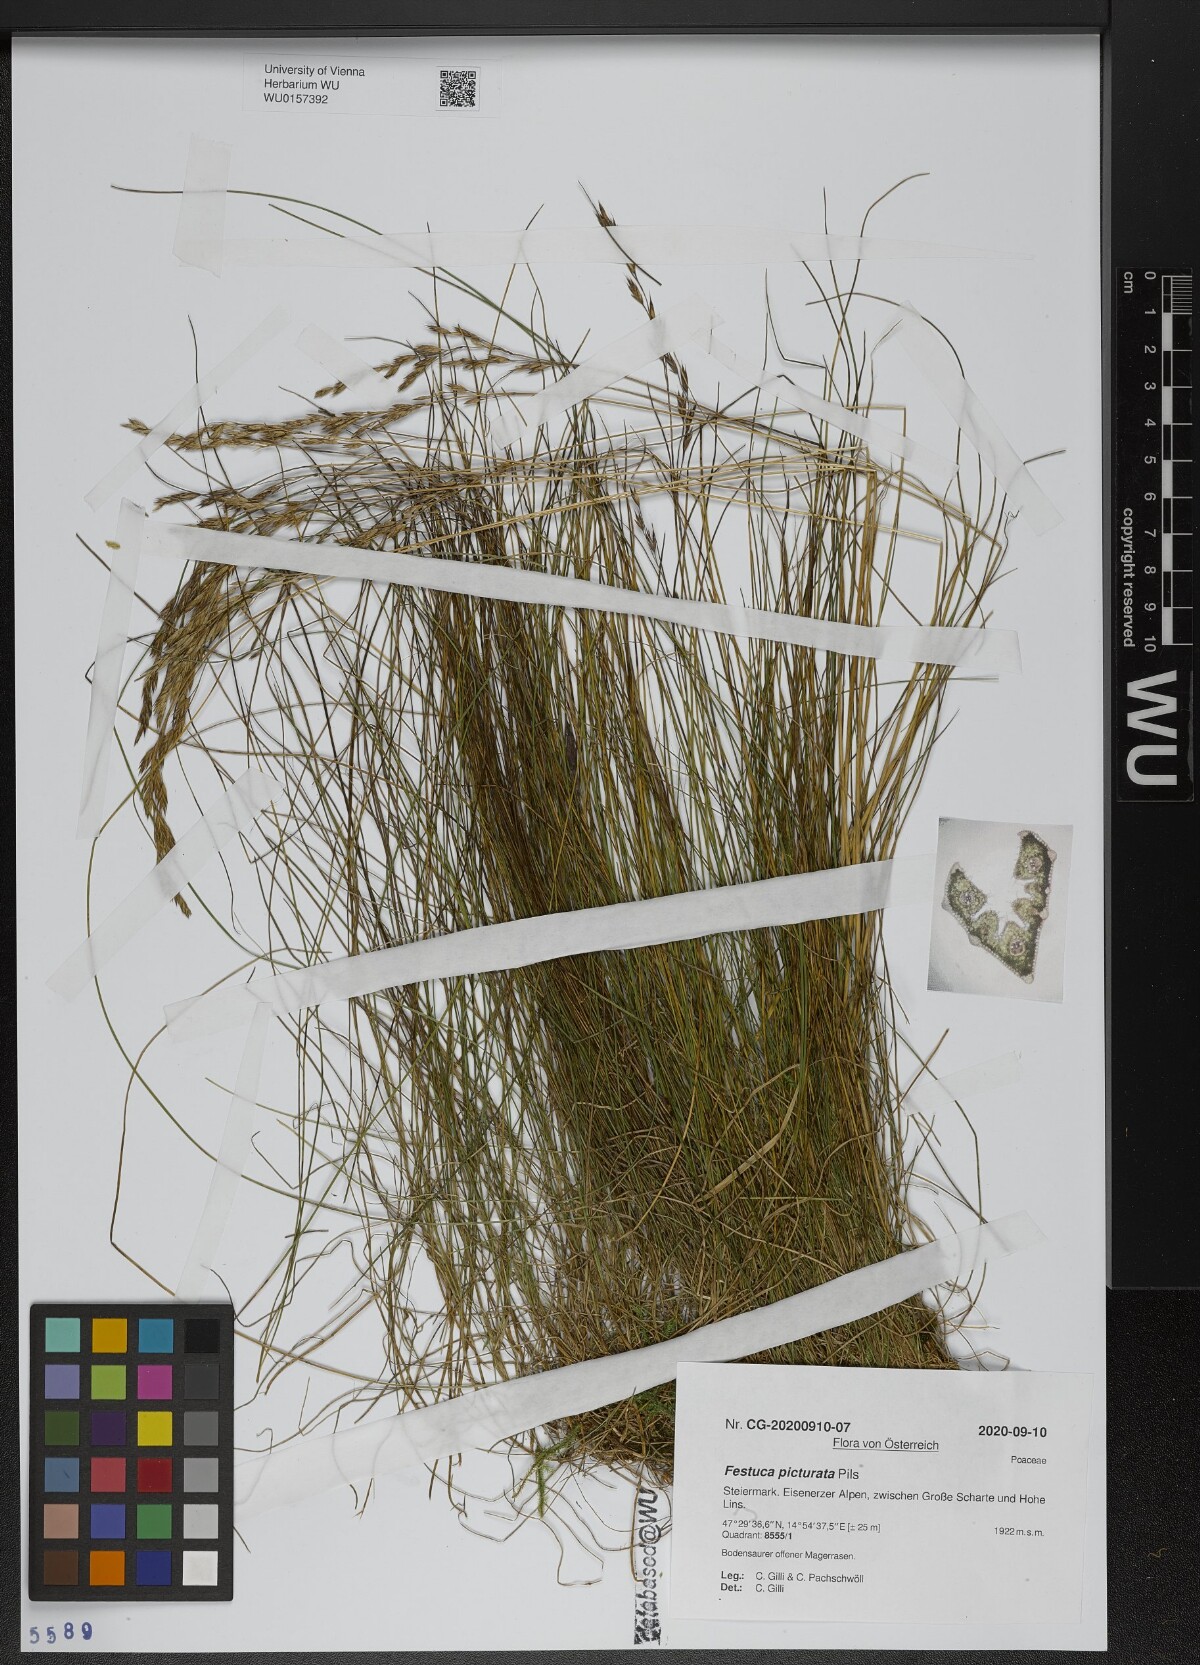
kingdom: Plantae
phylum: Tracheophyta
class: Liliopsida
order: Poales
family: Poaceae
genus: Festuca
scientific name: Festuca picturata
